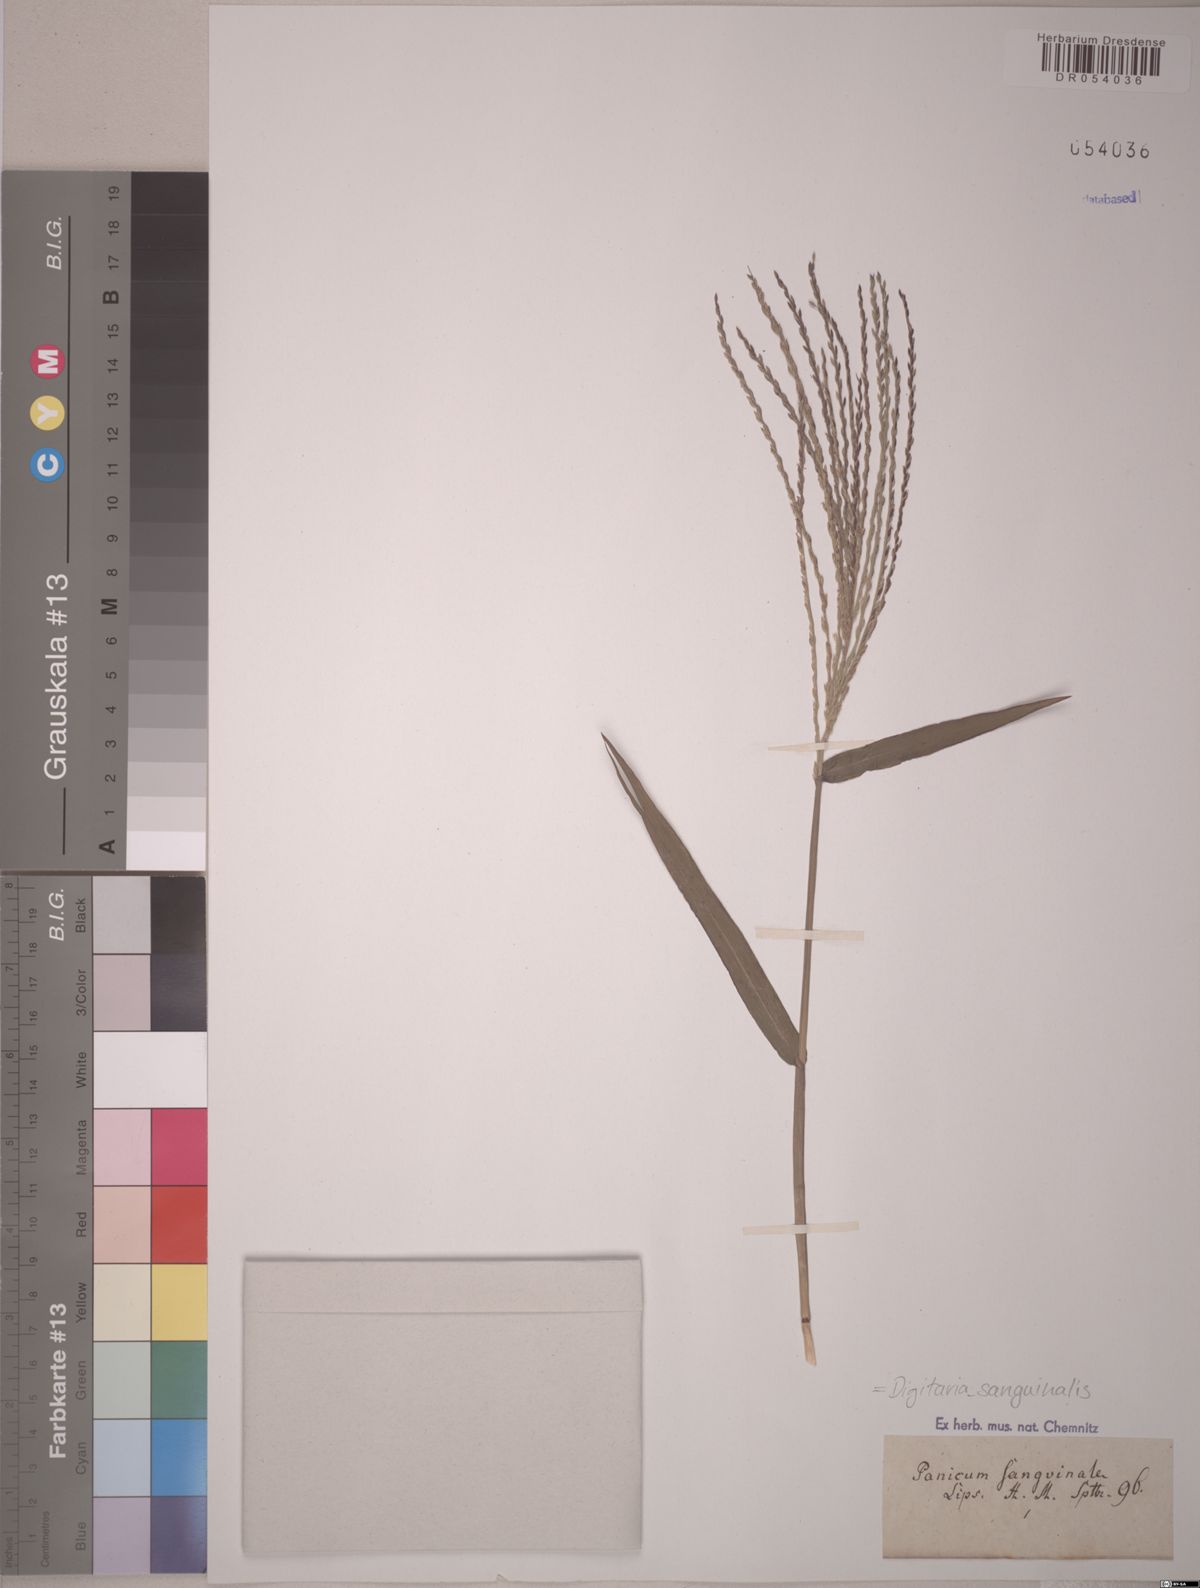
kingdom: Plantae
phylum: Tracheophyta
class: Liliopsida
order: Poales
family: Poaceae
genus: Digitaria
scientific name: Digitaria sanguinalis
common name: Hairy crabgrass
